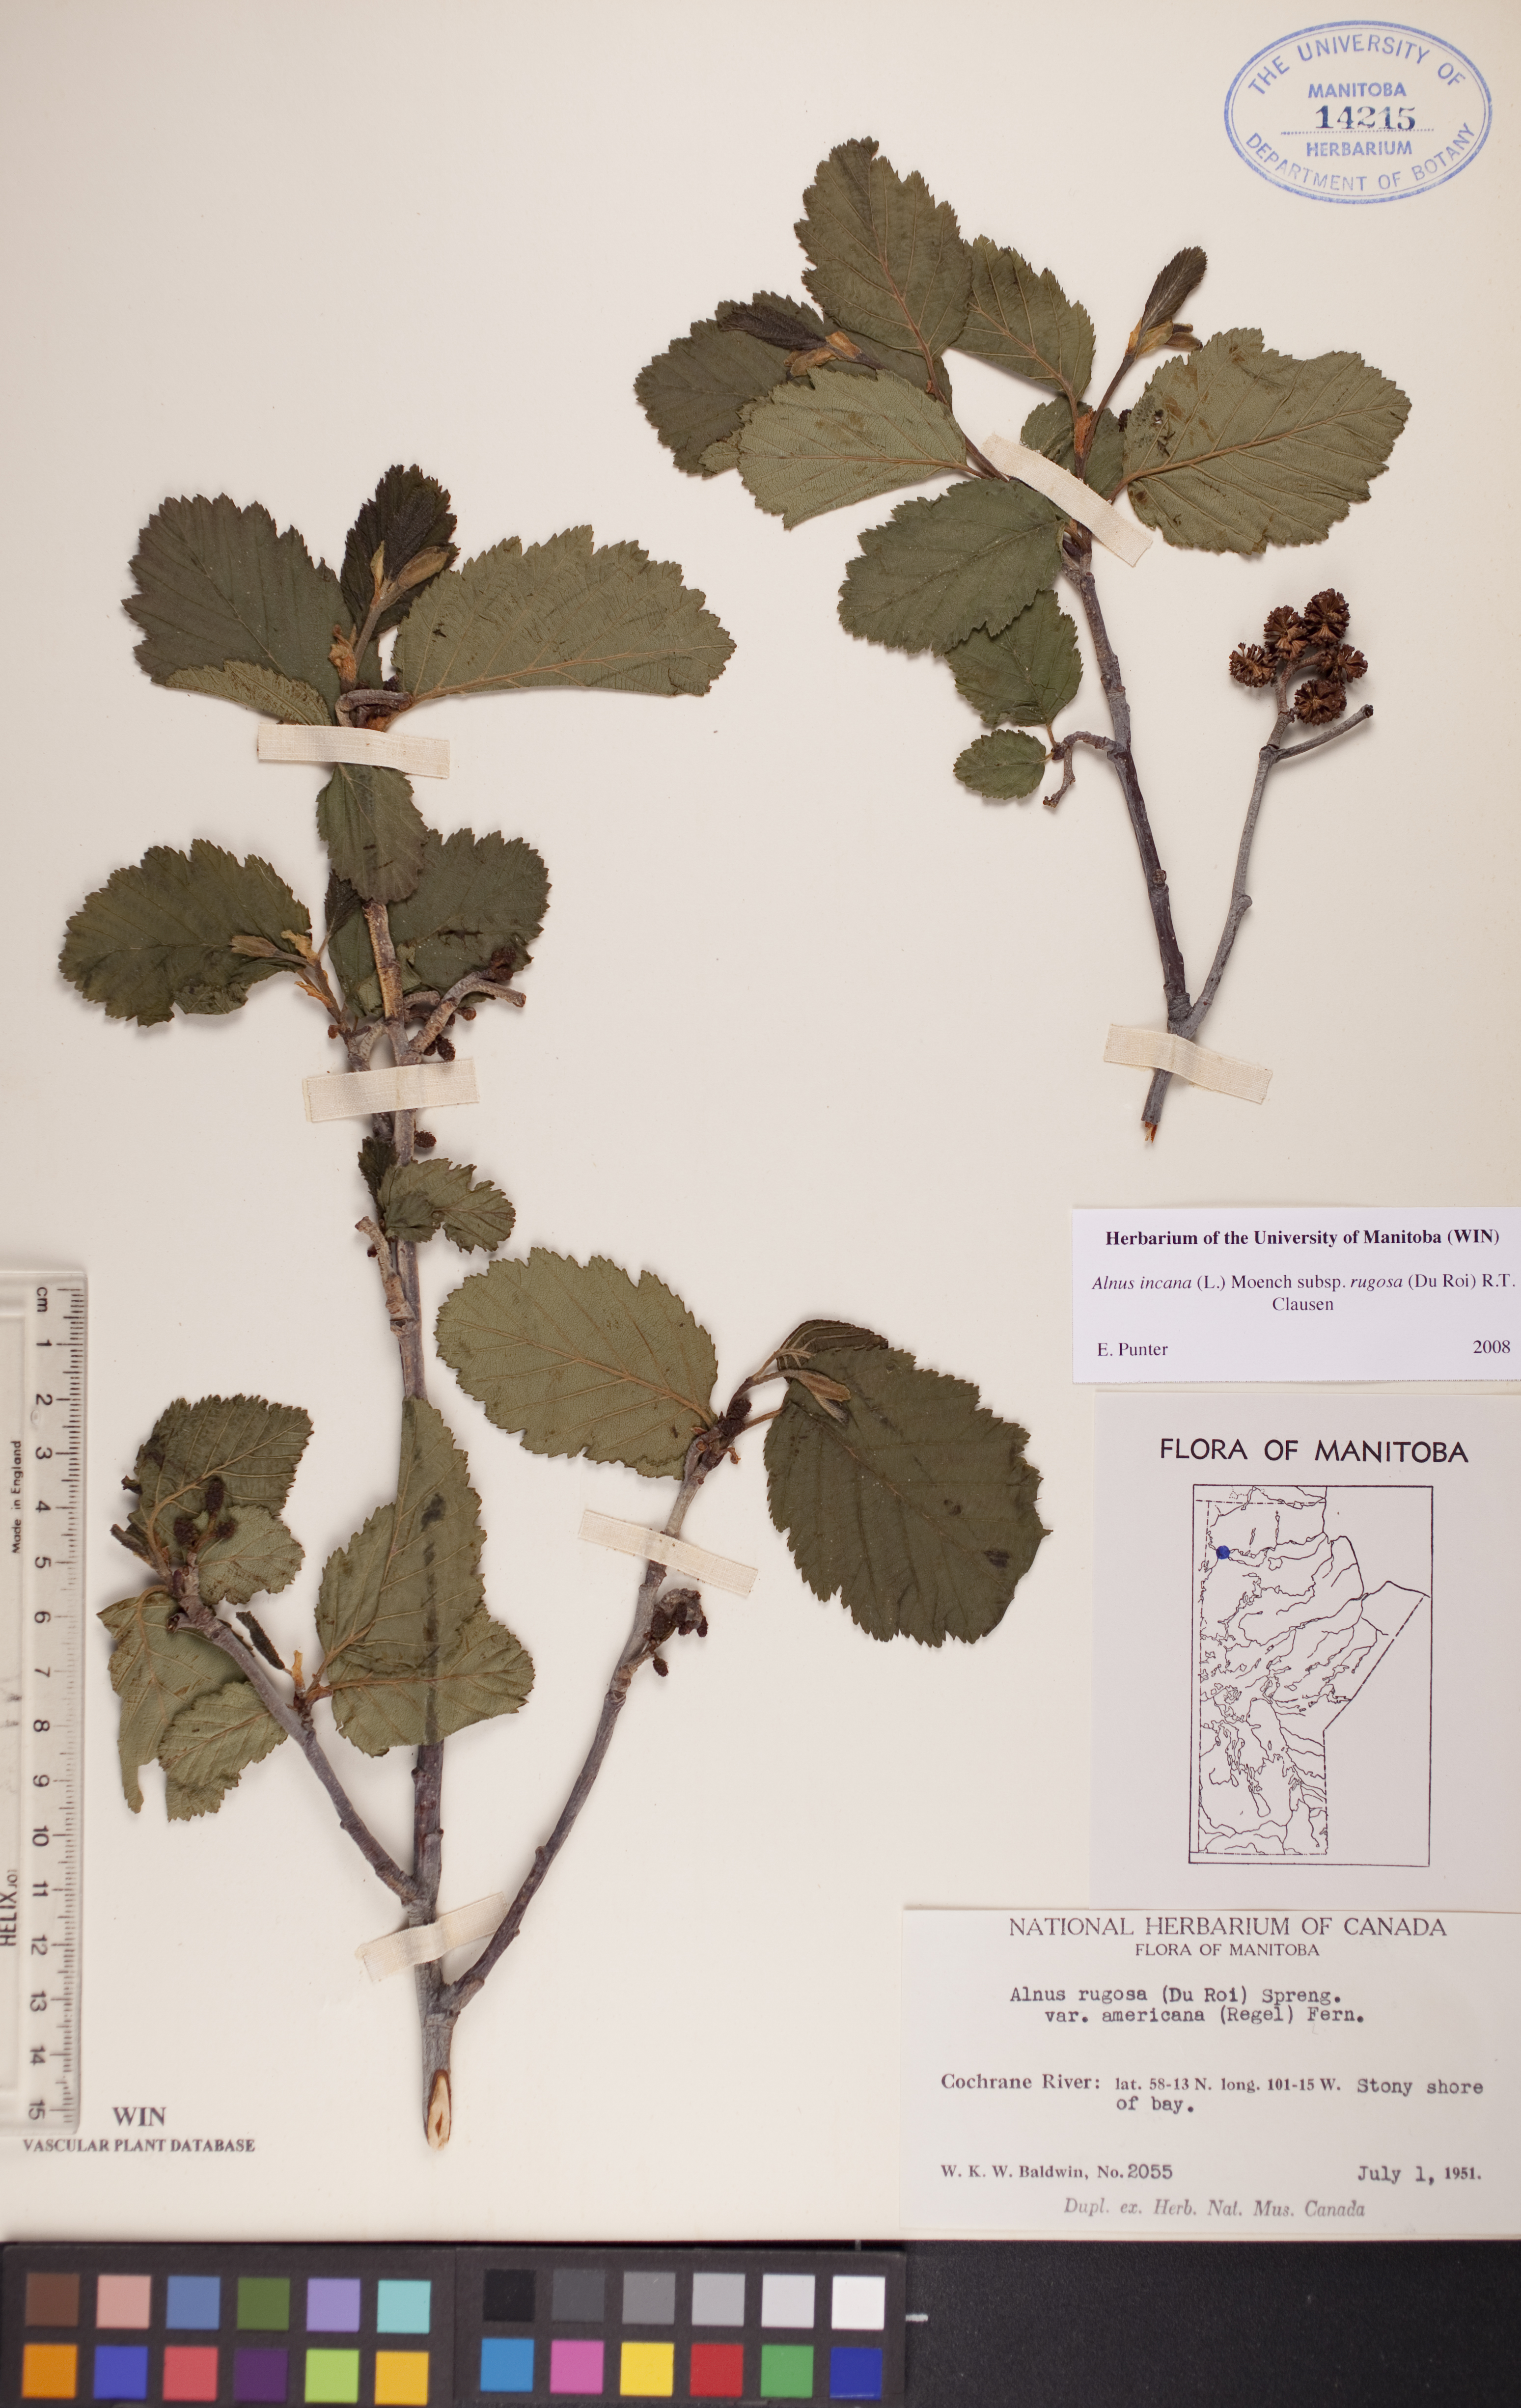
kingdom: Plantae
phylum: Tracheophyta
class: Magnoliopsida
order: Fagales
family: Betulaceae
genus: Alnus
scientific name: Alnus incana
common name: Grey alder
